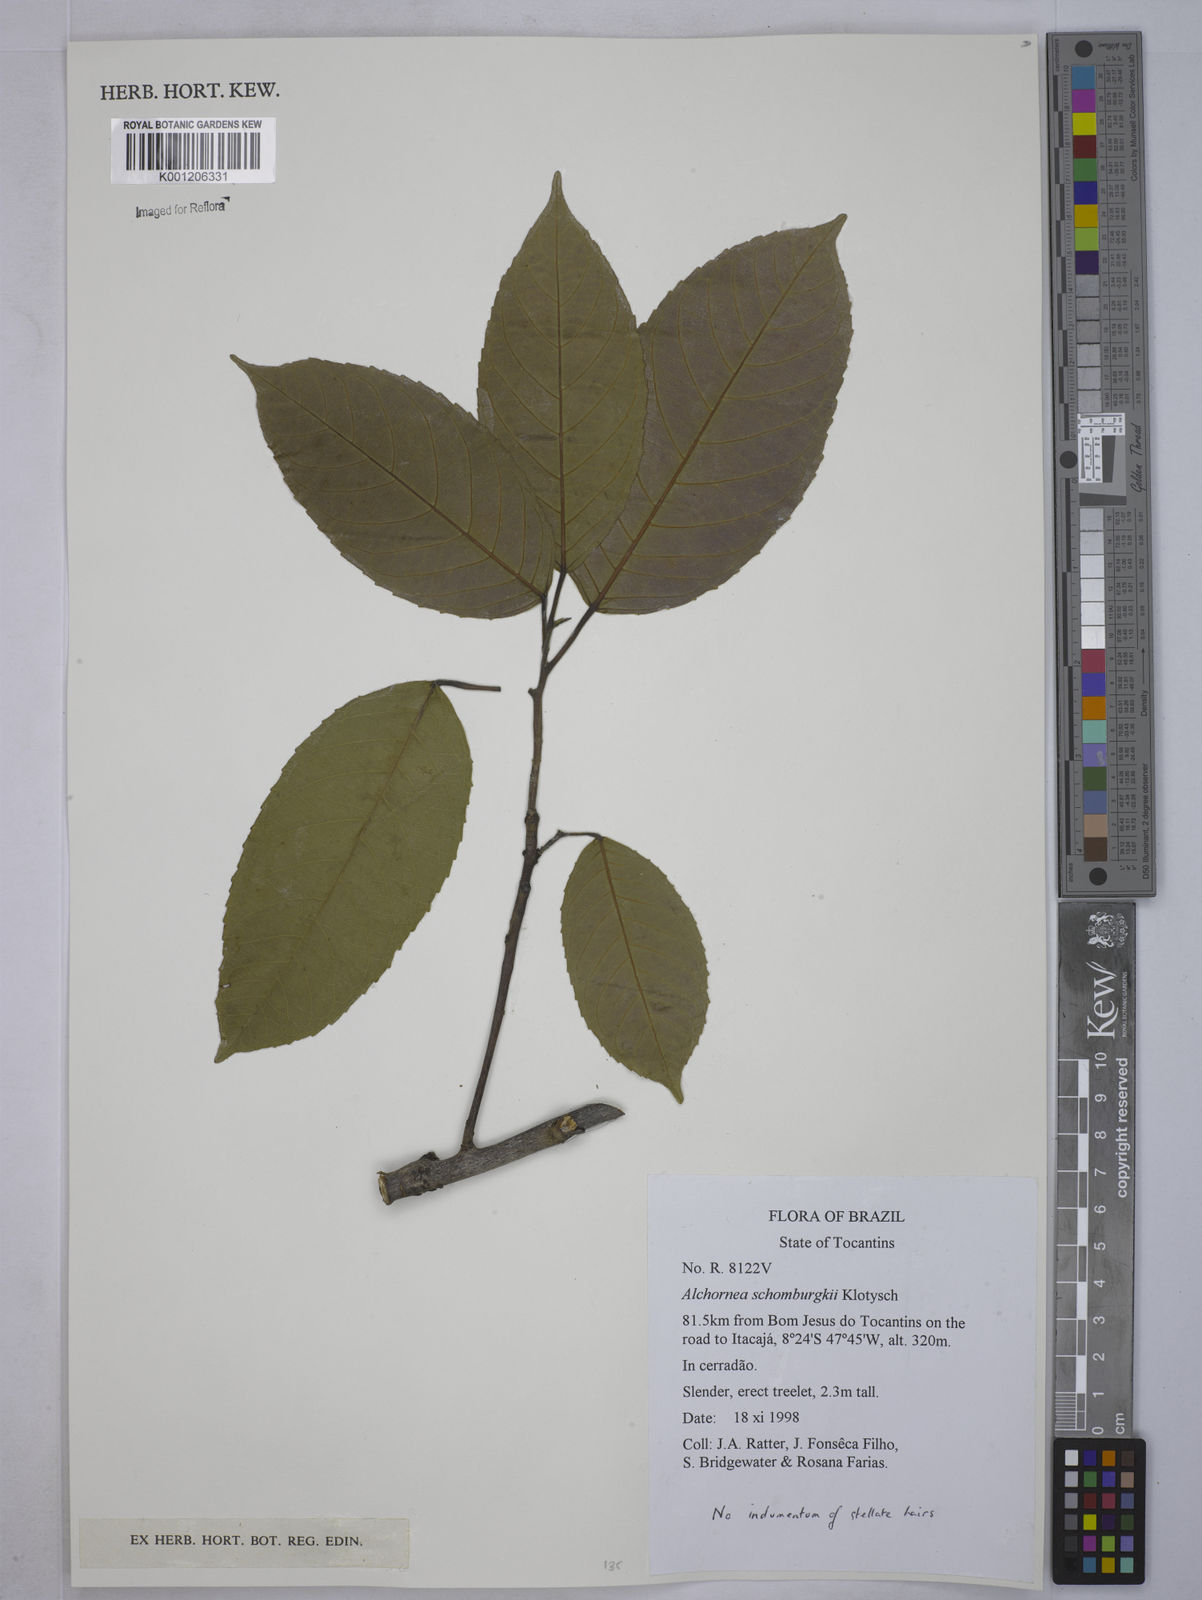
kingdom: Plantae
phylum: Tracheophyta
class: Magnoliopsida
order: Malpighiales
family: Euphorbiaceae
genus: Alchornea
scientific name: Alchornea discolor
